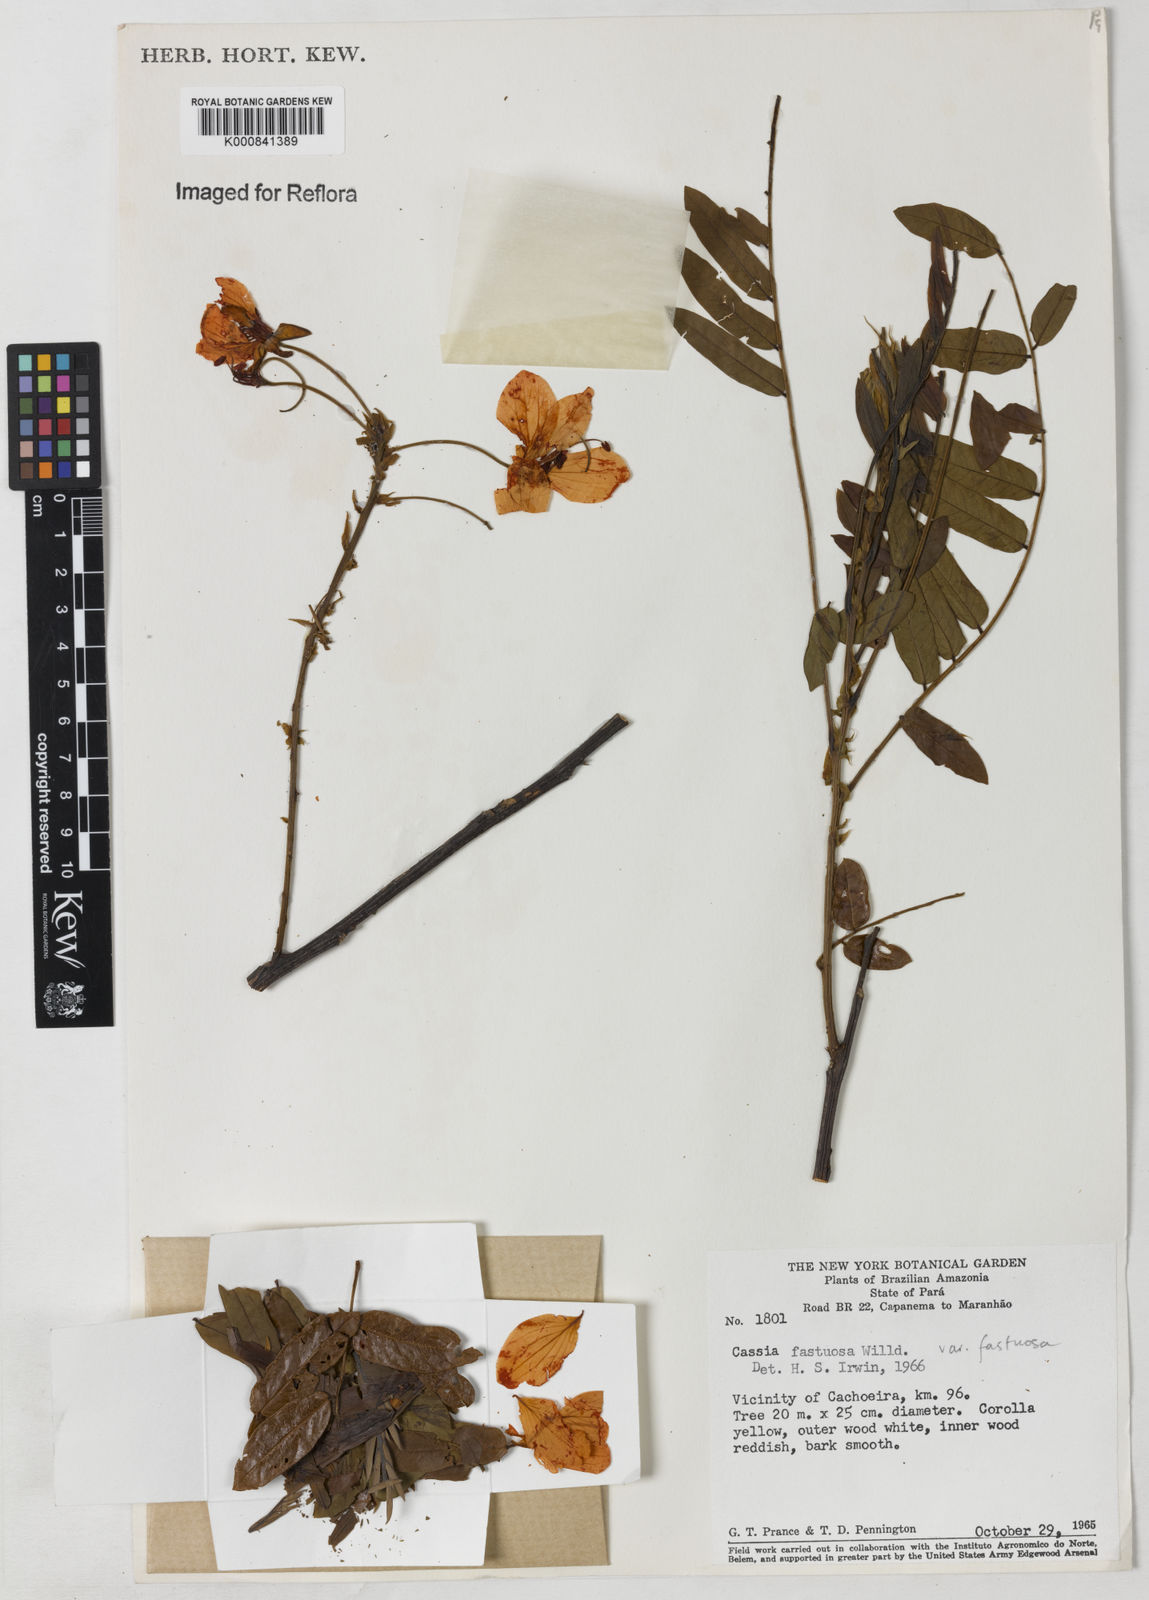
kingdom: Plantae
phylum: Tracheophyta
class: Magnoliopsida
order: Fabales
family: Fabaceae
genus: Cassia
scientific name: Cassia
